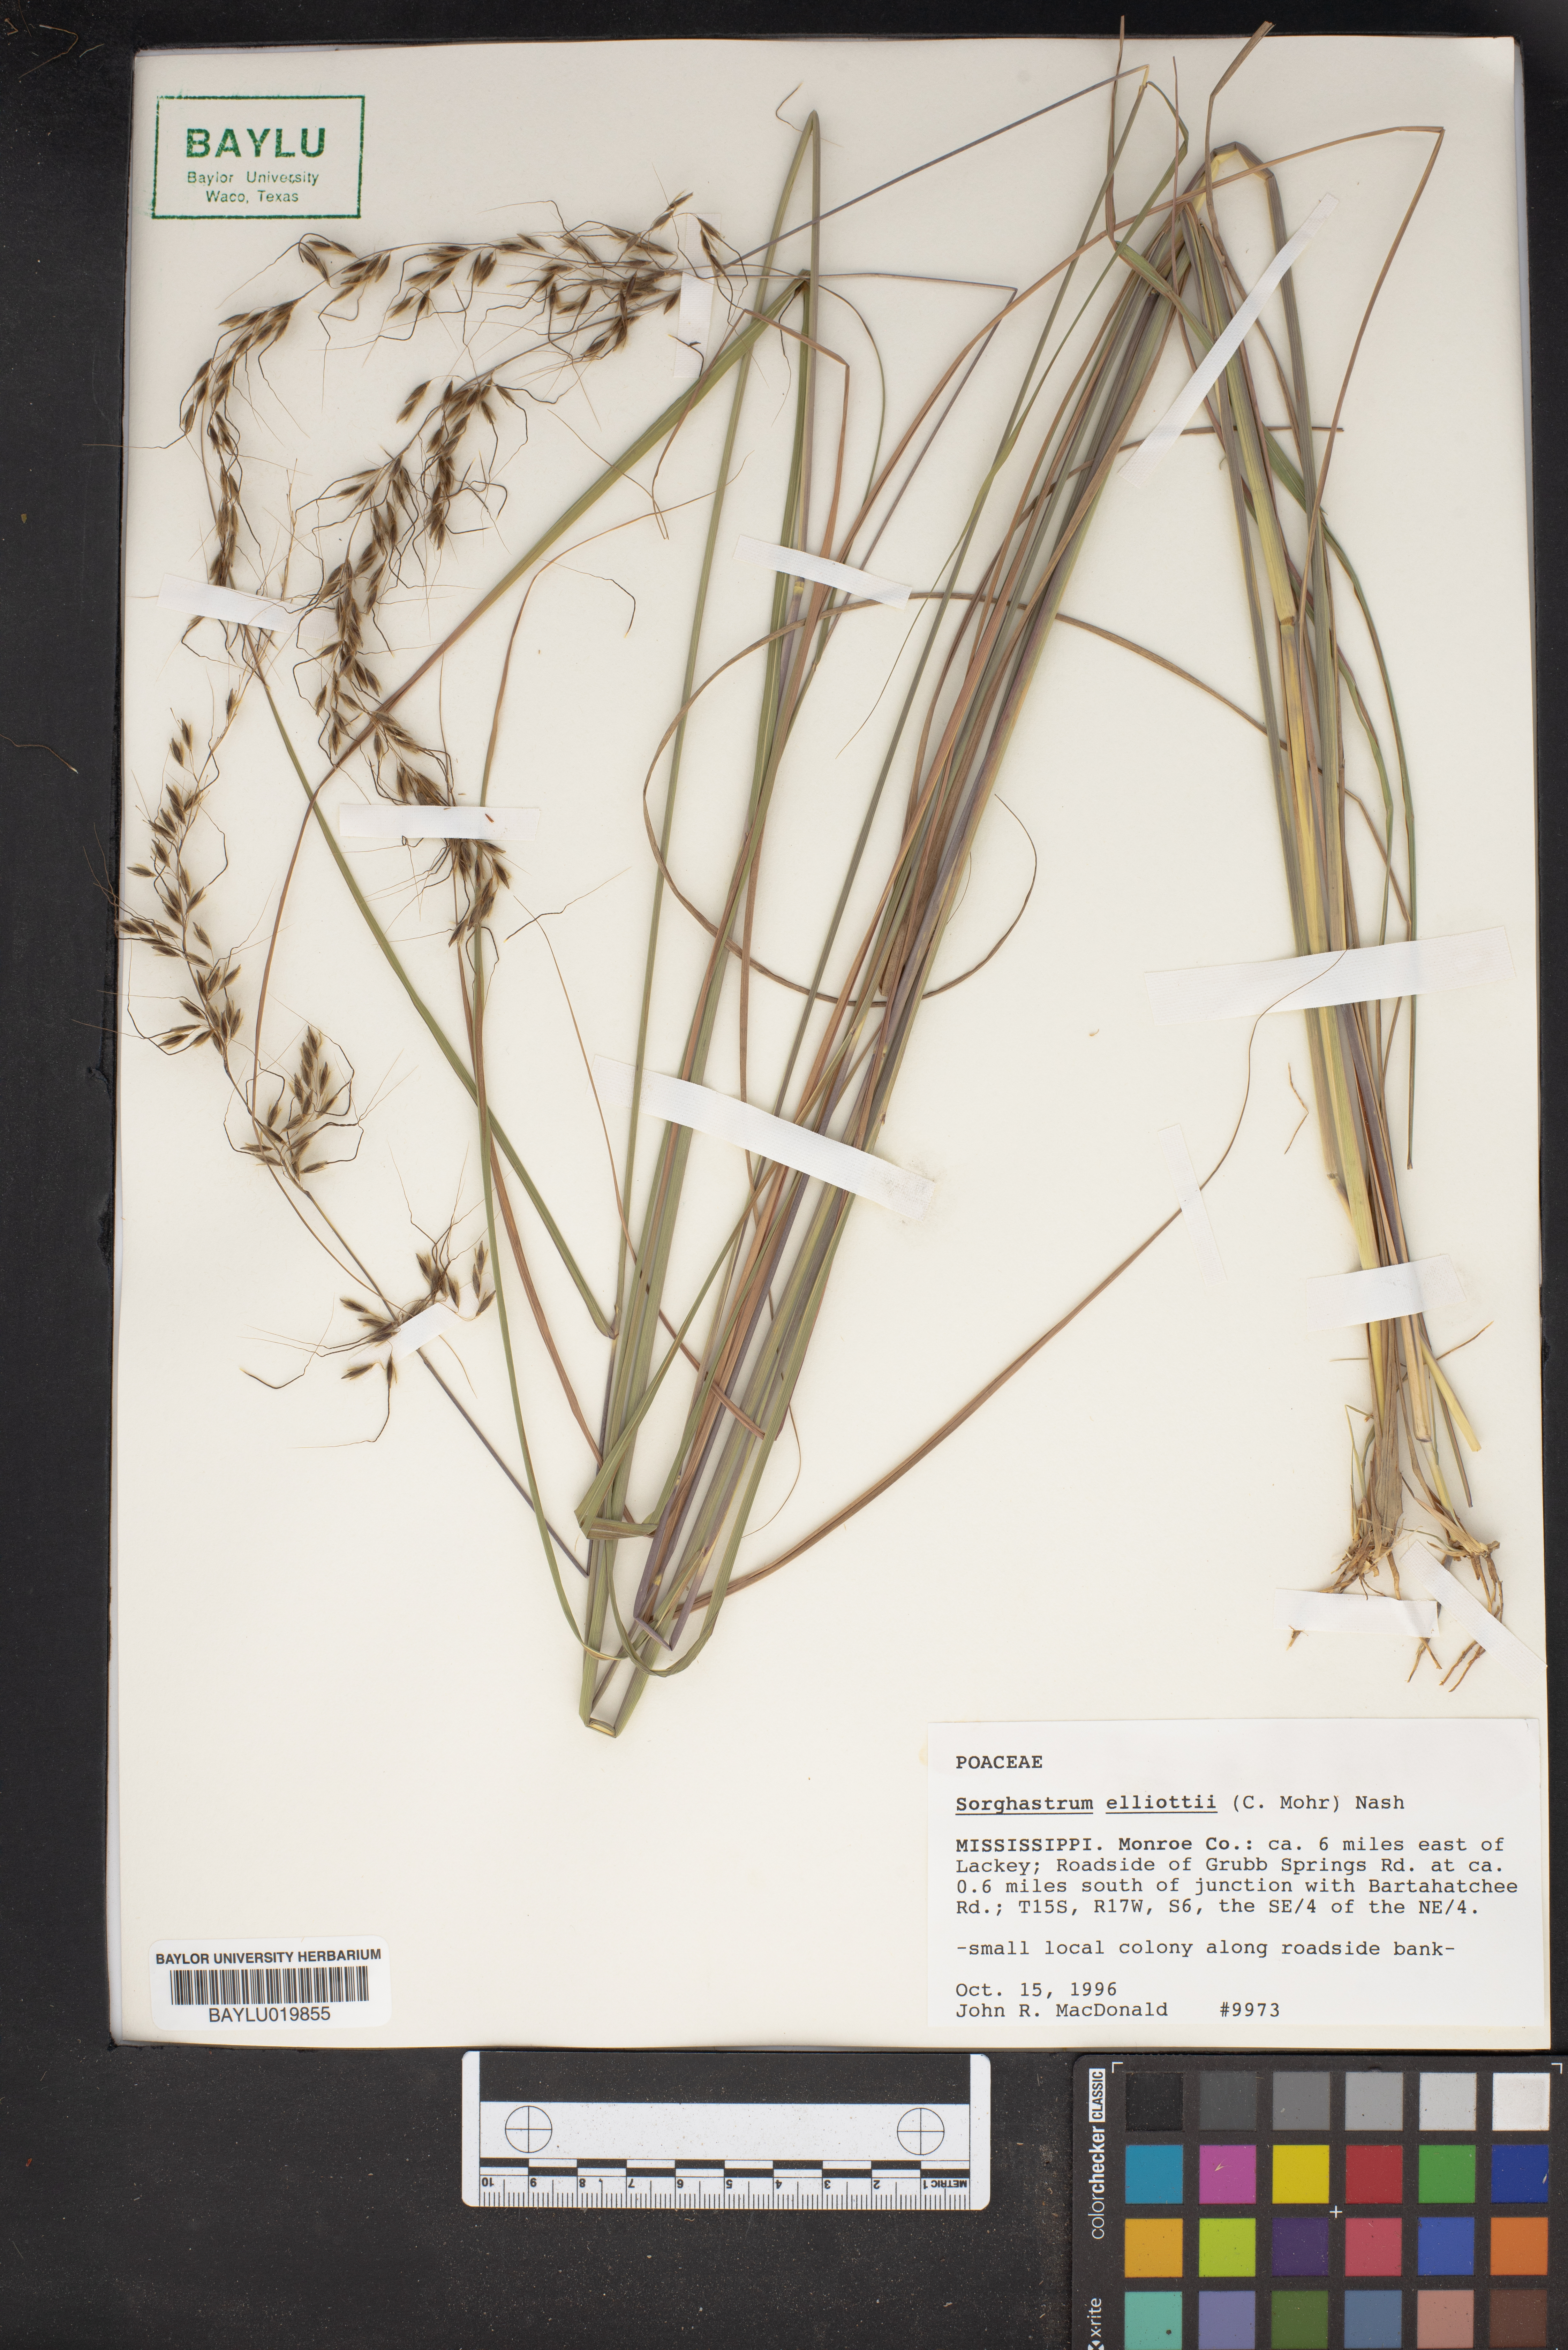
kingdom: Plantae
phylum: Tracheophyta
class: Liliopsida
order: Poales
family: Poaceae
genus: Sorghastrum
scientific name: Sorghastrum elliottii
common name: Slender indian grass
